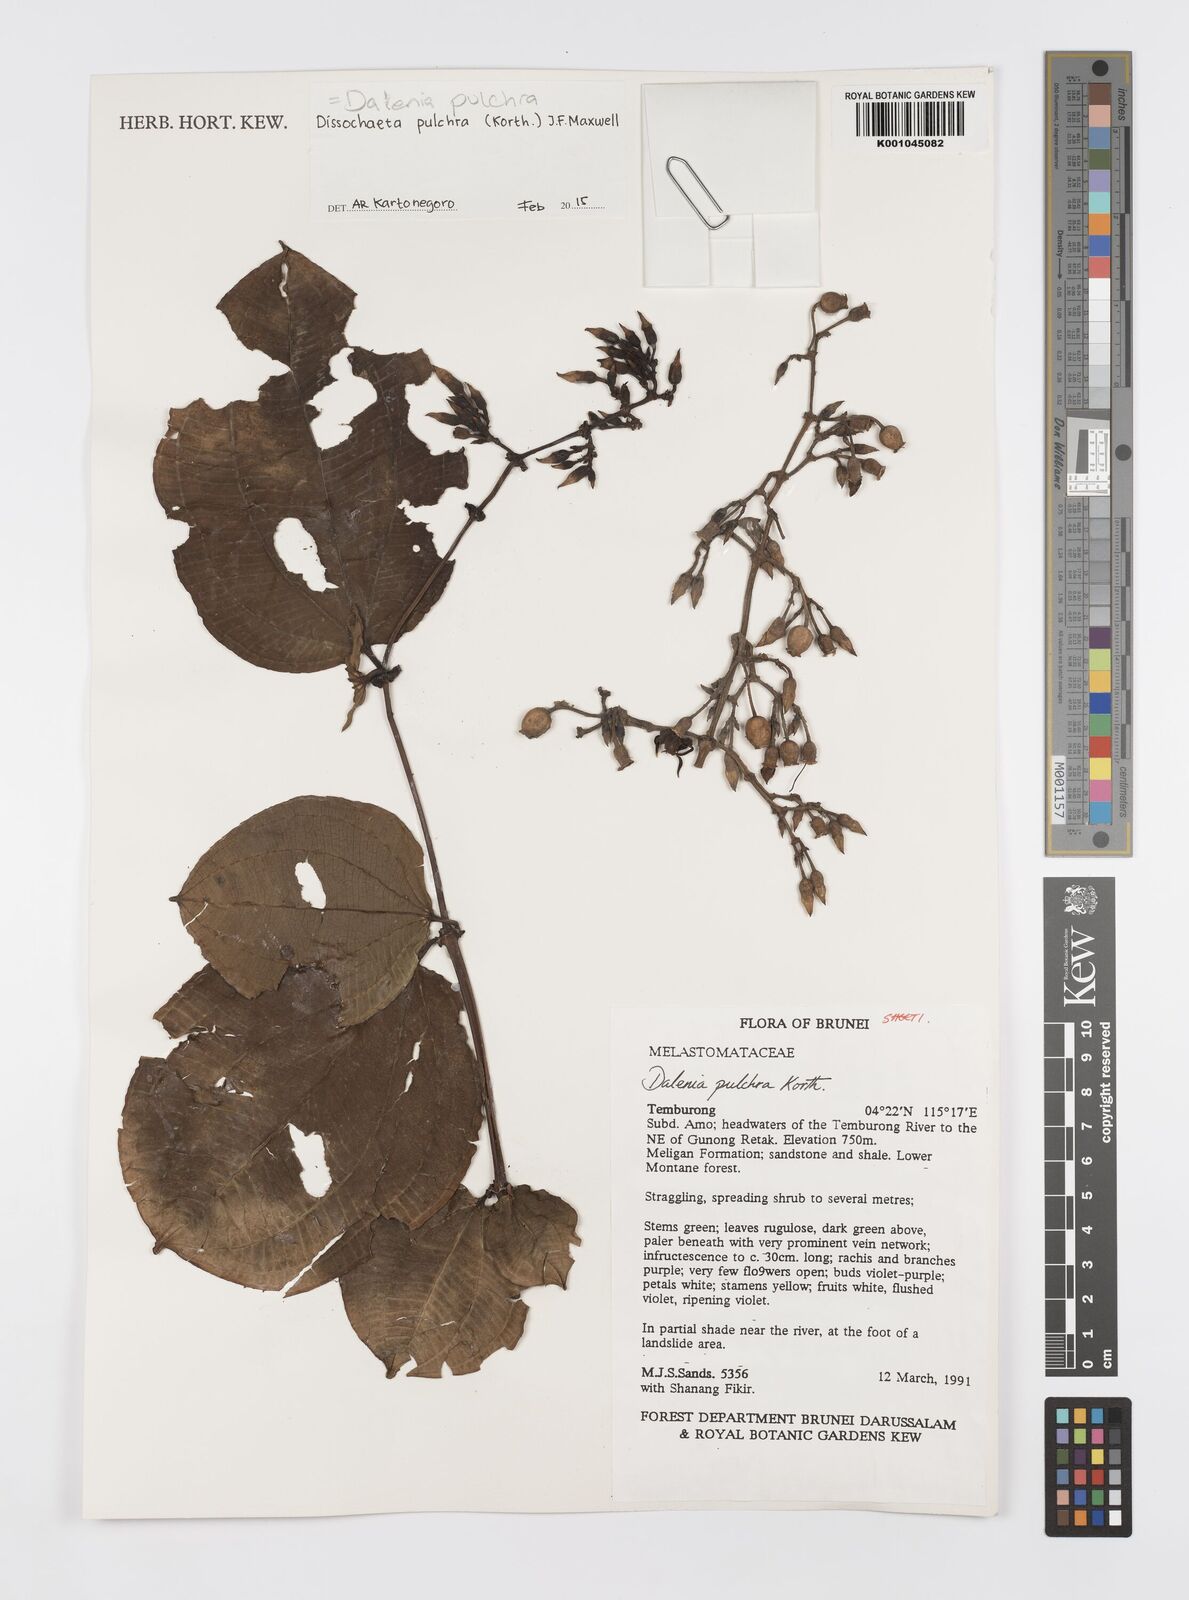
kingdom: Plantae
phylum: Tracheophyta
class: Magnoliopsida
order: Myrtales
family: Melastomataceae
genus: Dalenia
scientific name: Dalenia pulchra
